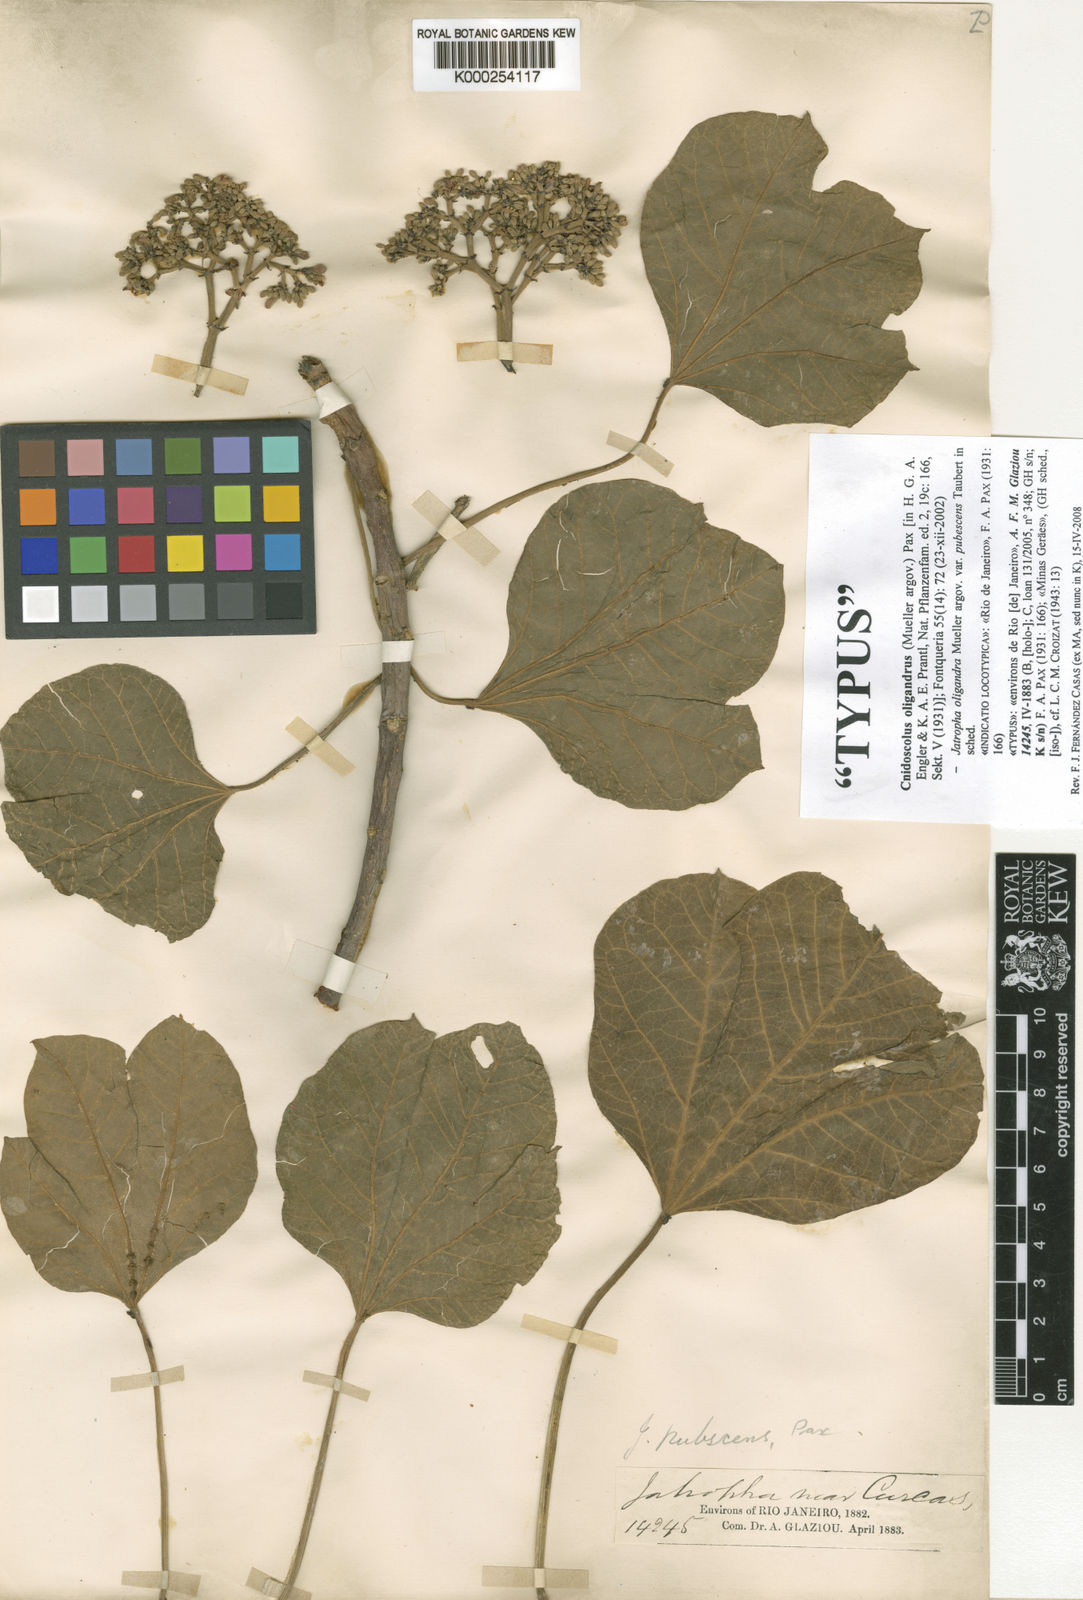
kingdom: Plantae
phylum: Tracheophyta
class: Magnoliopsida
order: Malpighiales
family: Euphorbiaceae
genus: Cnidoscolus
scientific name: Cnidoscolus
